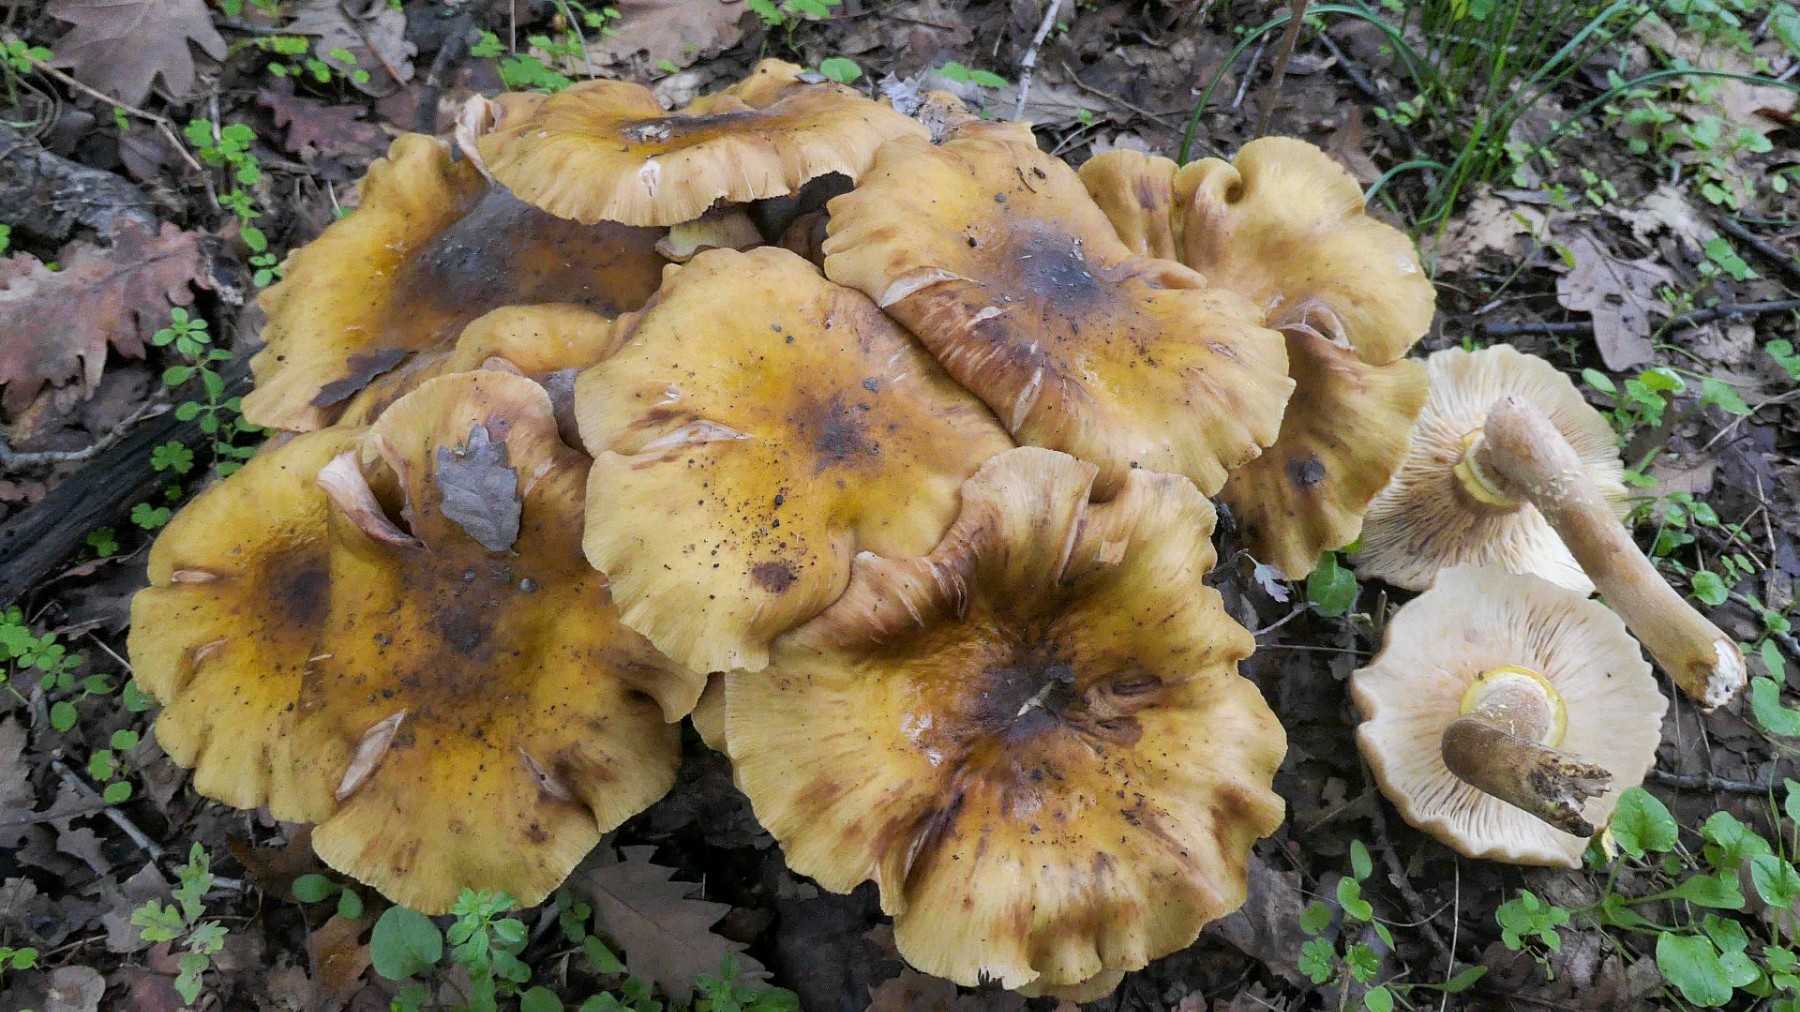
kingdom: Fungi
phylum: Basidiomycota
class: Agaricomycetes
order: Agaricales
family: Physalacriaceae
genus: Armillaria
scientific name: Armillaria mellea
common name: ægte honningsvamp
